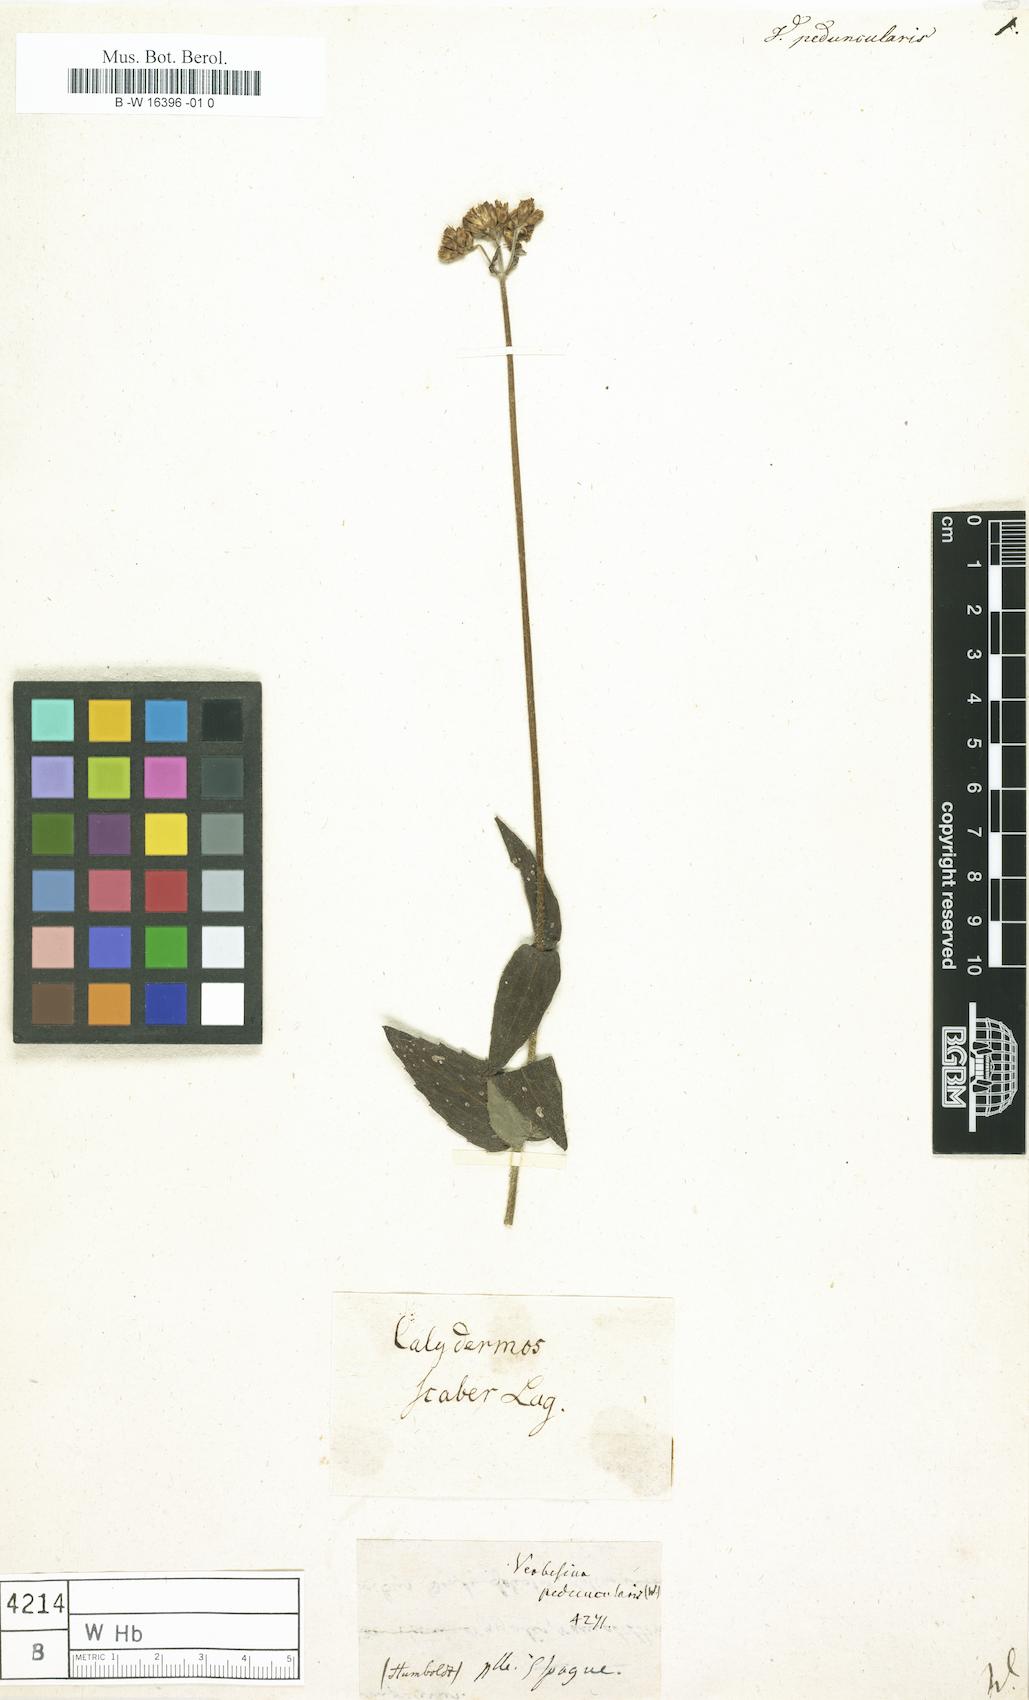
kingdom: Plantae
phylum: Tracheophyta
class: Magnoliopsida
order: Asterales
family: Asteraceae
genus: Verbesina
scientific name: Verbesina
